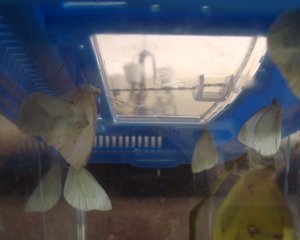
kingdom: Animalia
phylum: Arthropoda
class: Insecta
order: Lepidoptera
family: Pieridae
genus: Pieris
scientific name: Pieris rapae
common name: Cabbage White
